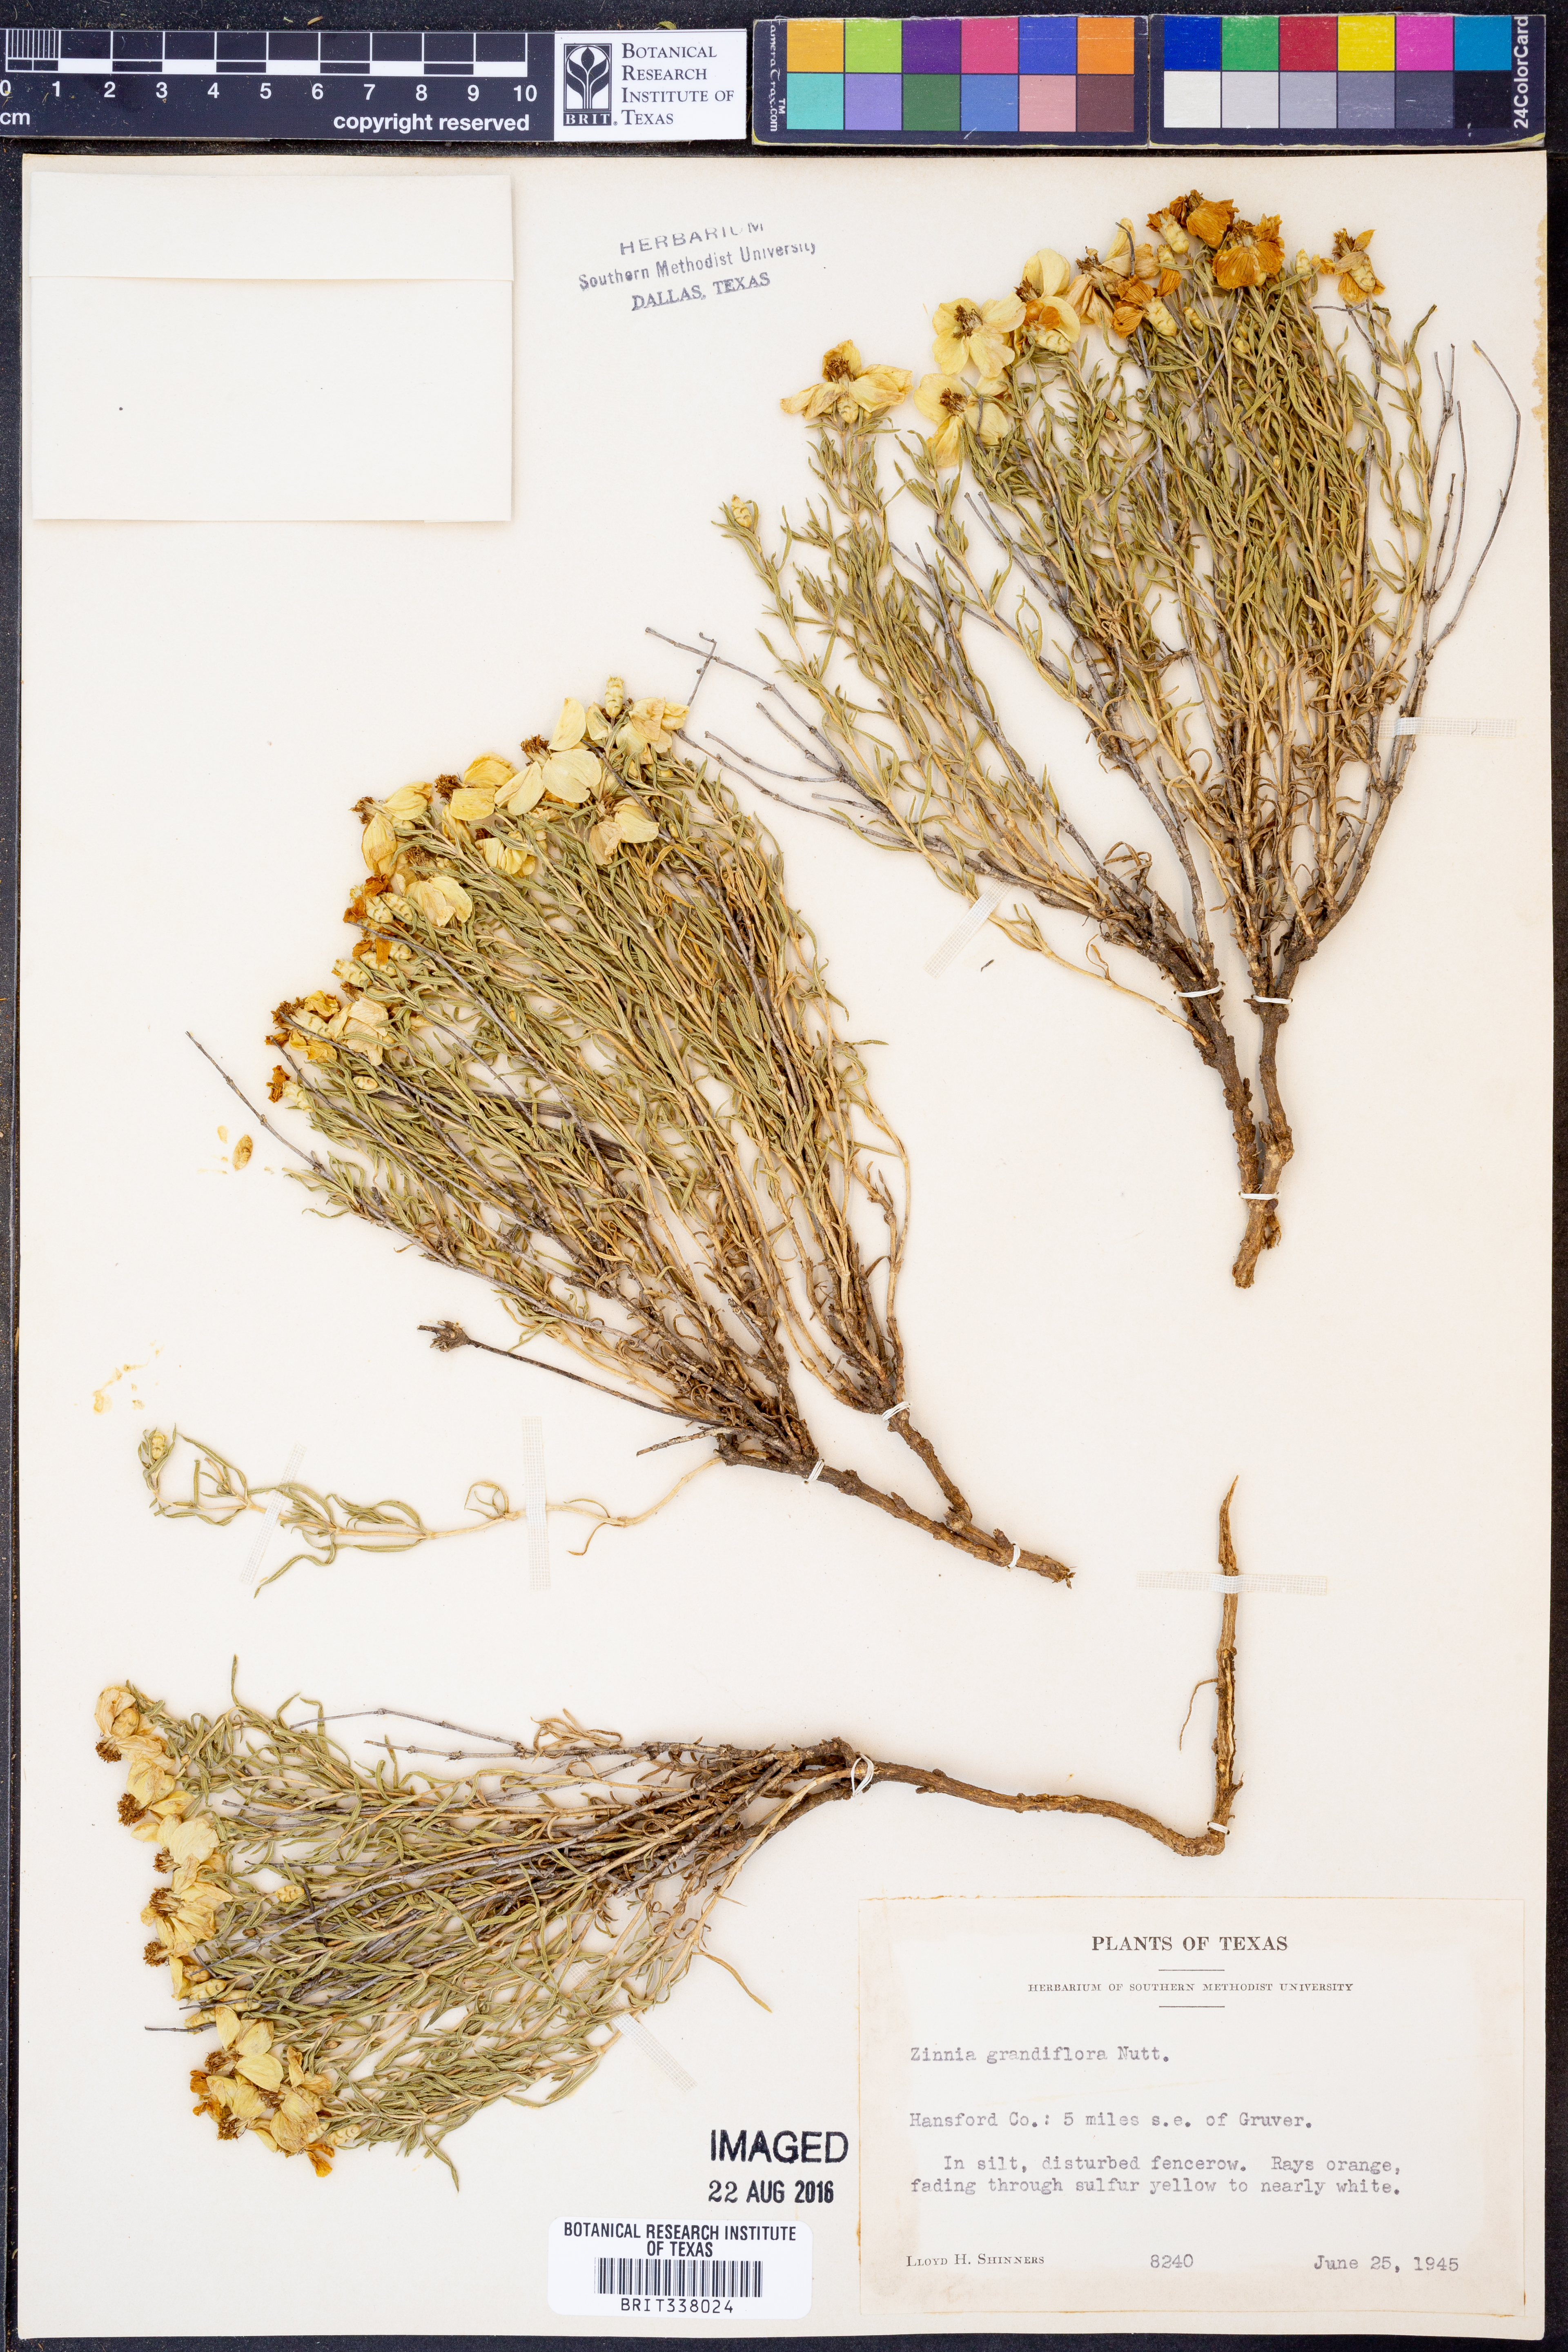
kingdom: Plantae
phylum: Tracheophyta
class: Magnoliopsida
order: Asterales
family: Asteraceae
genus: Zinnia
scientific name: Zinnia grandiflora
